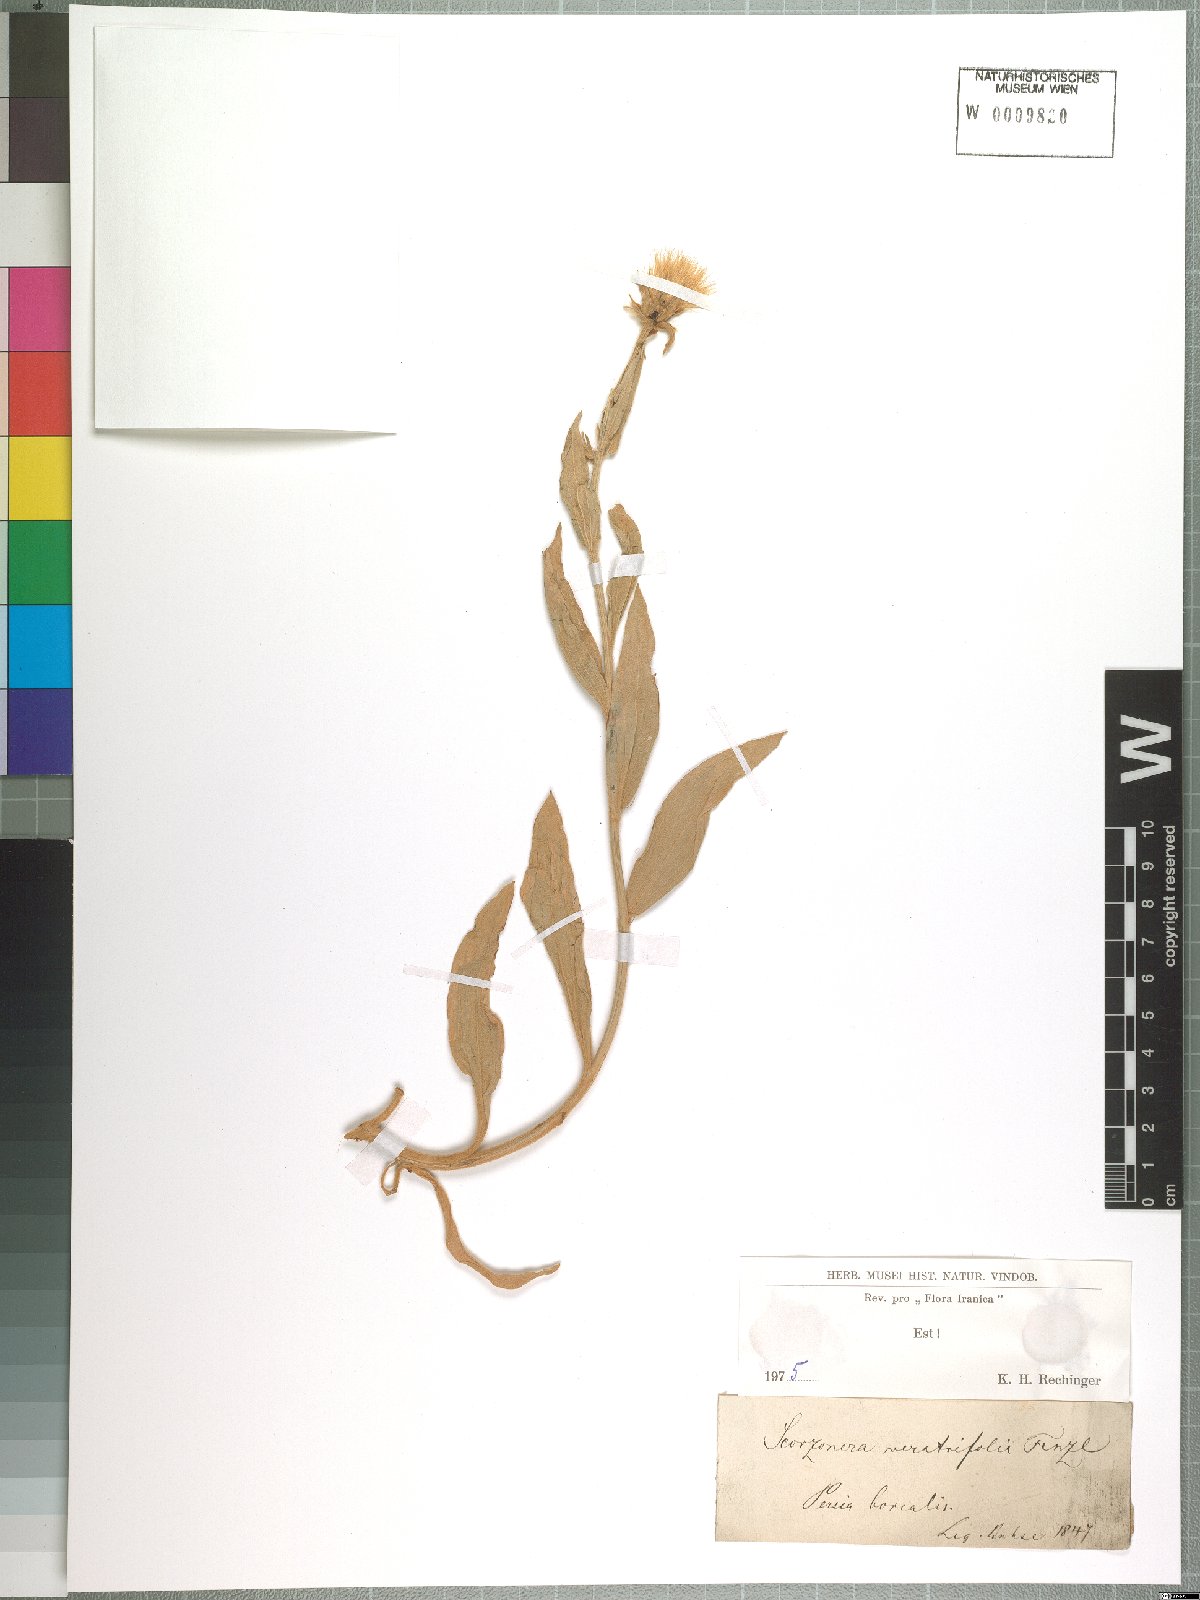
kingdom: Plantae
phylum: Tracheophyta
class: Magnoliopsida
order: Asterales
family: Asteraceae
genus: Guneria
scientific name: Guneria veratrifolia
